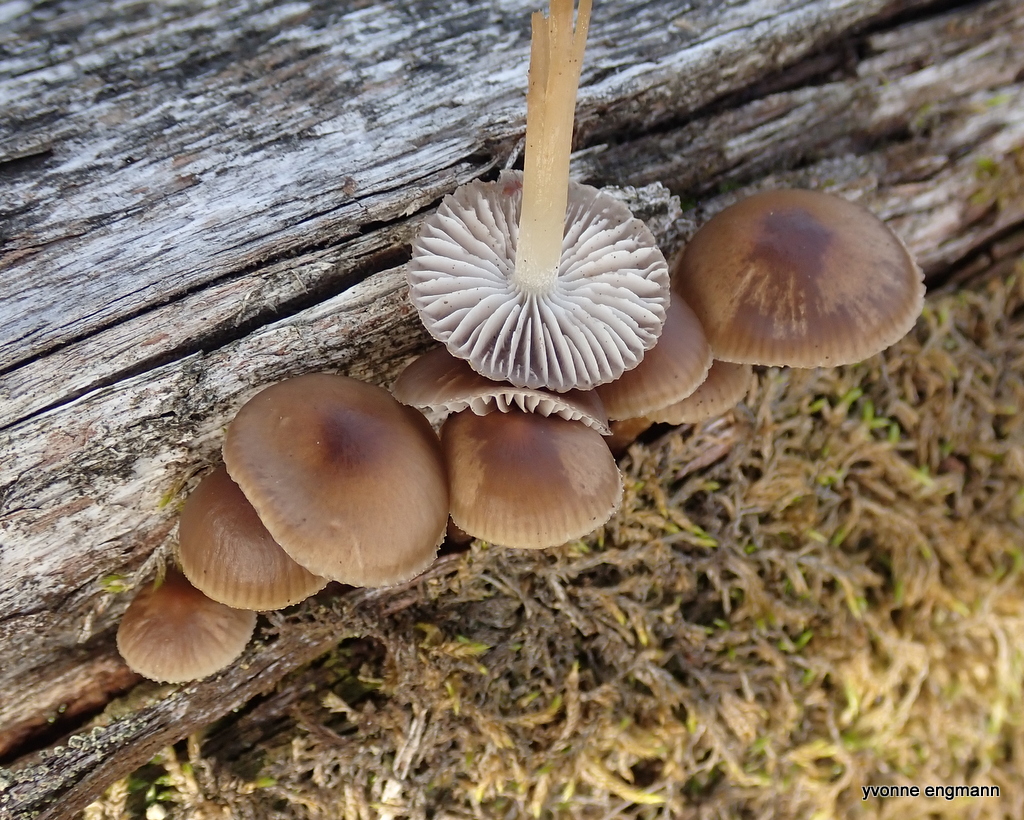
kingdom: Fungi
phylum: Basidiomycota
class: Agaricomycetes
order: Agaricales
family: Mycenaceae
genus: Mycena
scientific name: Mycena inclinata
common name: nikkende huesvamp
